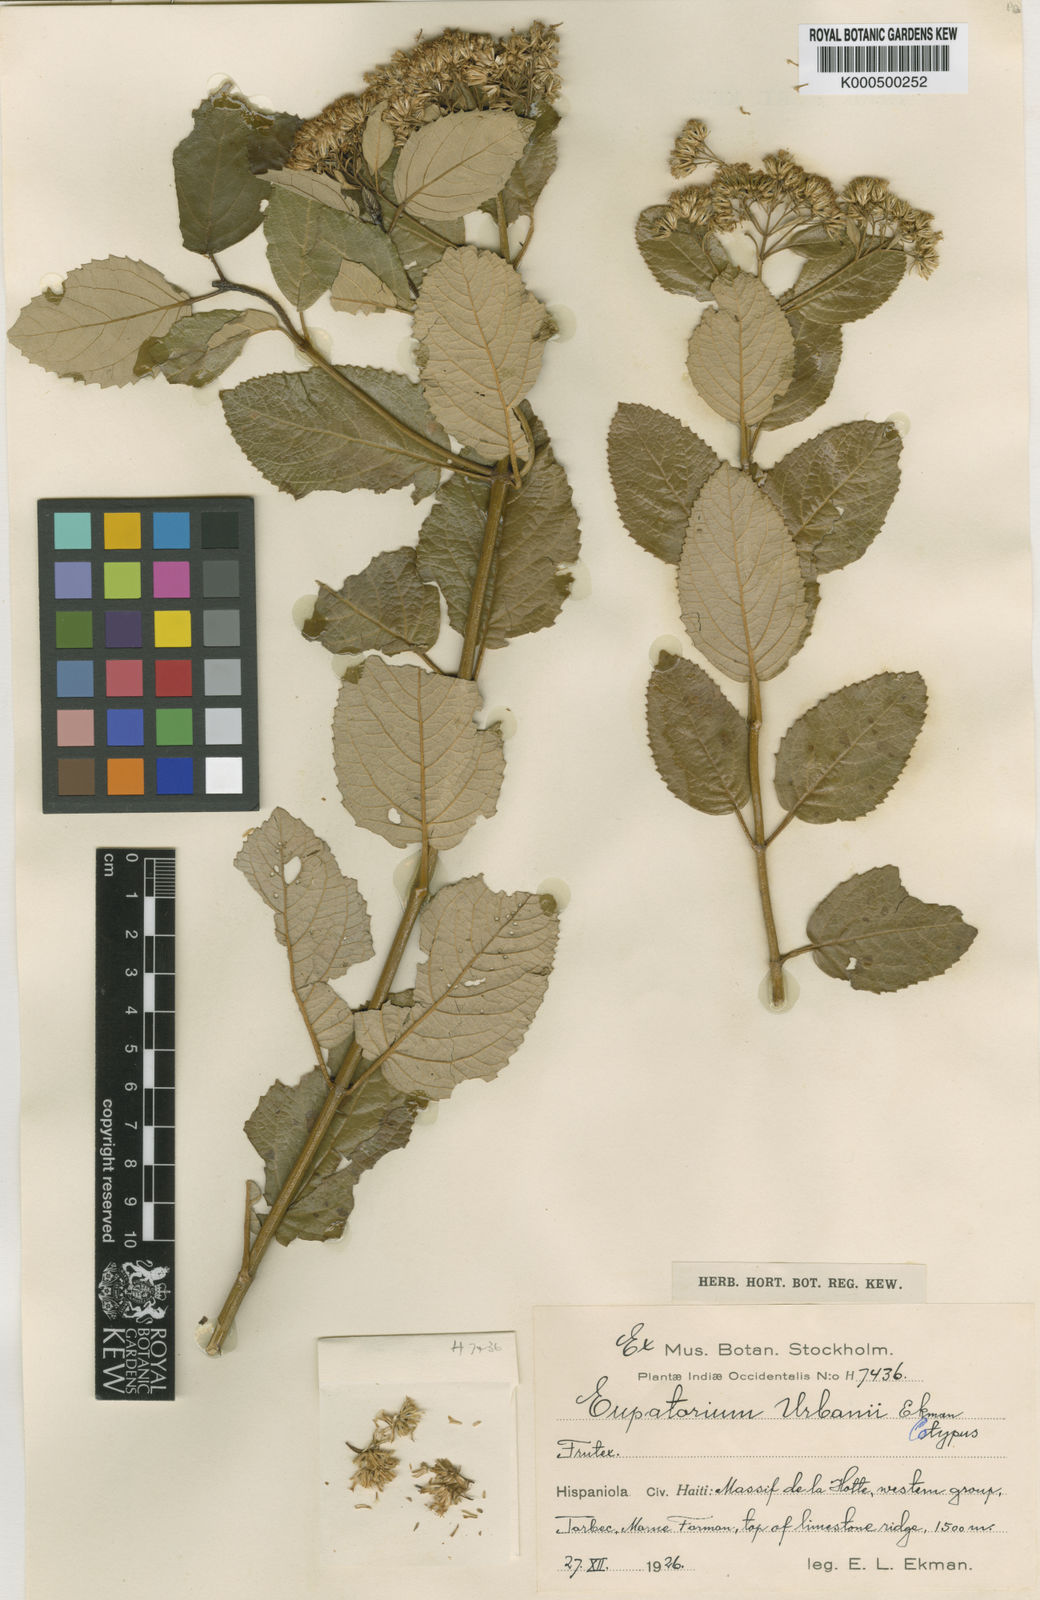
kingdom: Plantae
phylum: Tracheophyta
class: Magnoliopsida
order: Asterales
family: Asteraceae
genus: Ageratina
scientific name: Ageratina urbani
